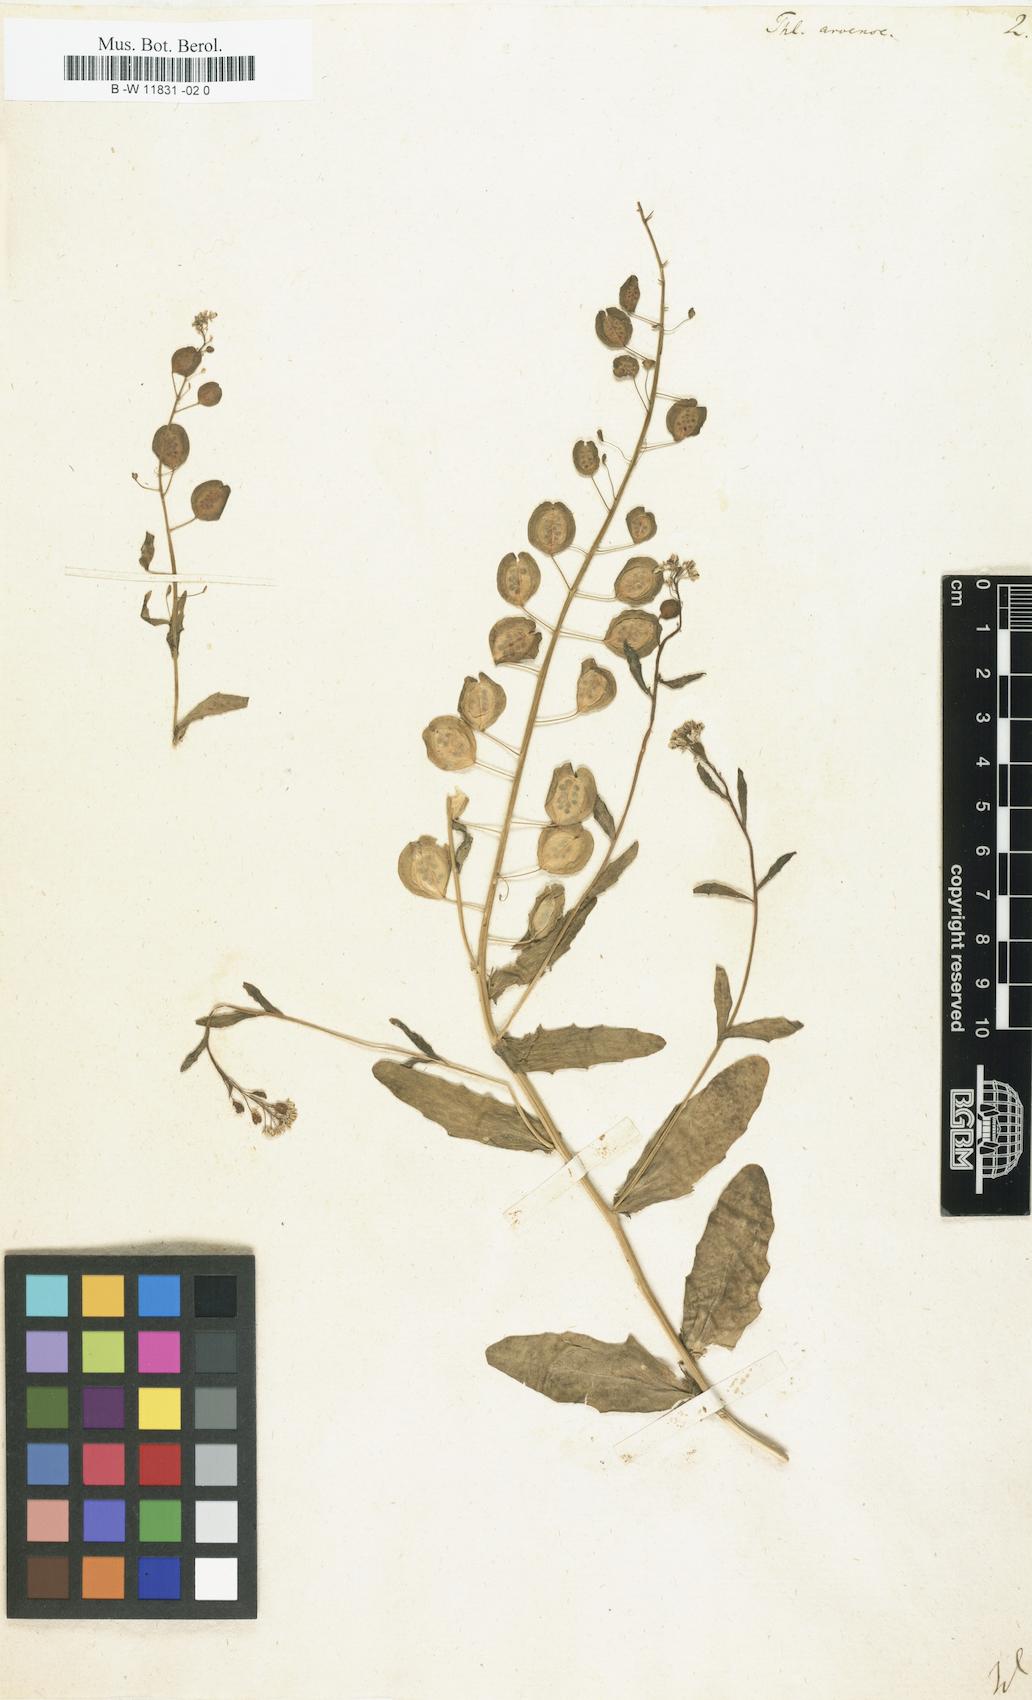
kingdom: Plantae
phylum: Tracheophyta
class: Magnoliopsida
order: Brassicales
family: Brassicaceae
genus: Thlaspi
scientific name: Thlaspi arvense
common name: Field pennycress
